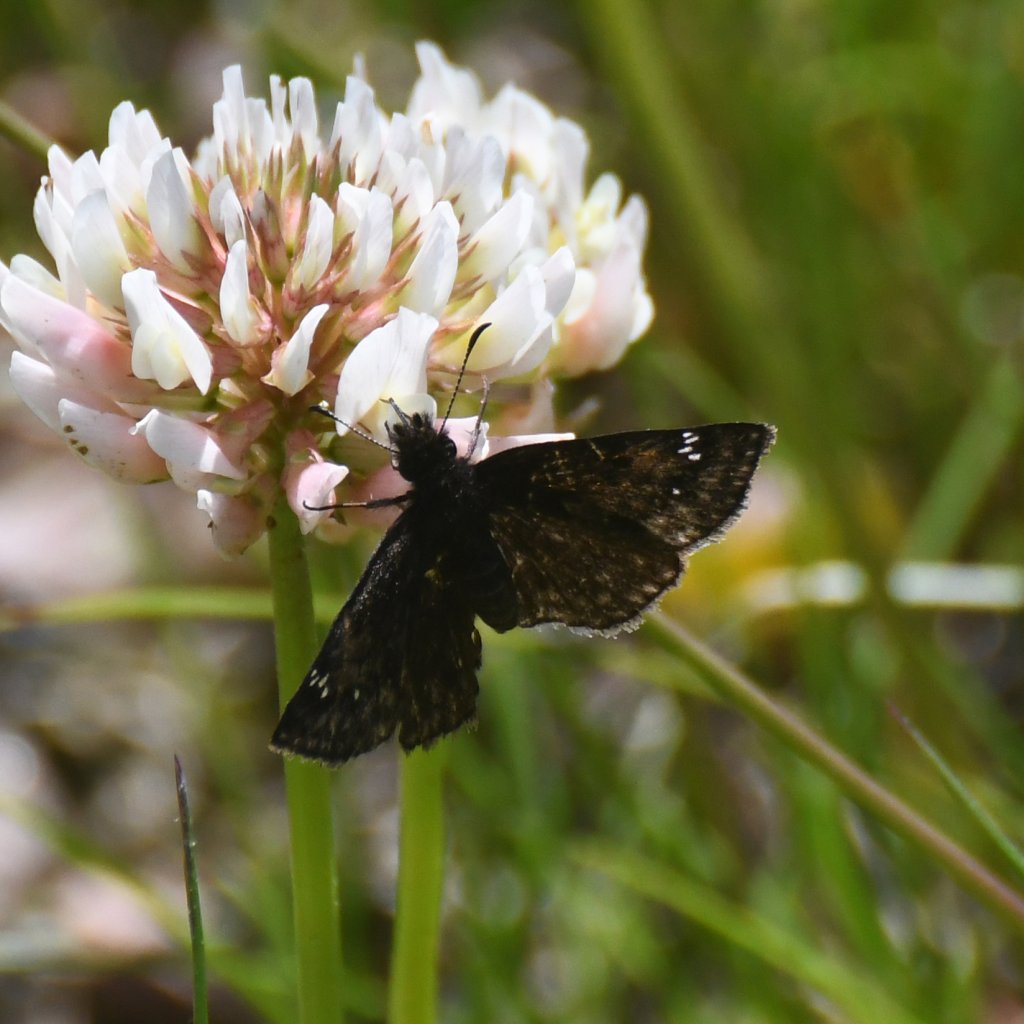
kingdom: Animalia
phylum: Arthropoda
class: Insecta
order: Lepidoptera
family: Hesperiidae
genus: Gesta
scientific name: Gesta
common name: Columbine Duskywing
